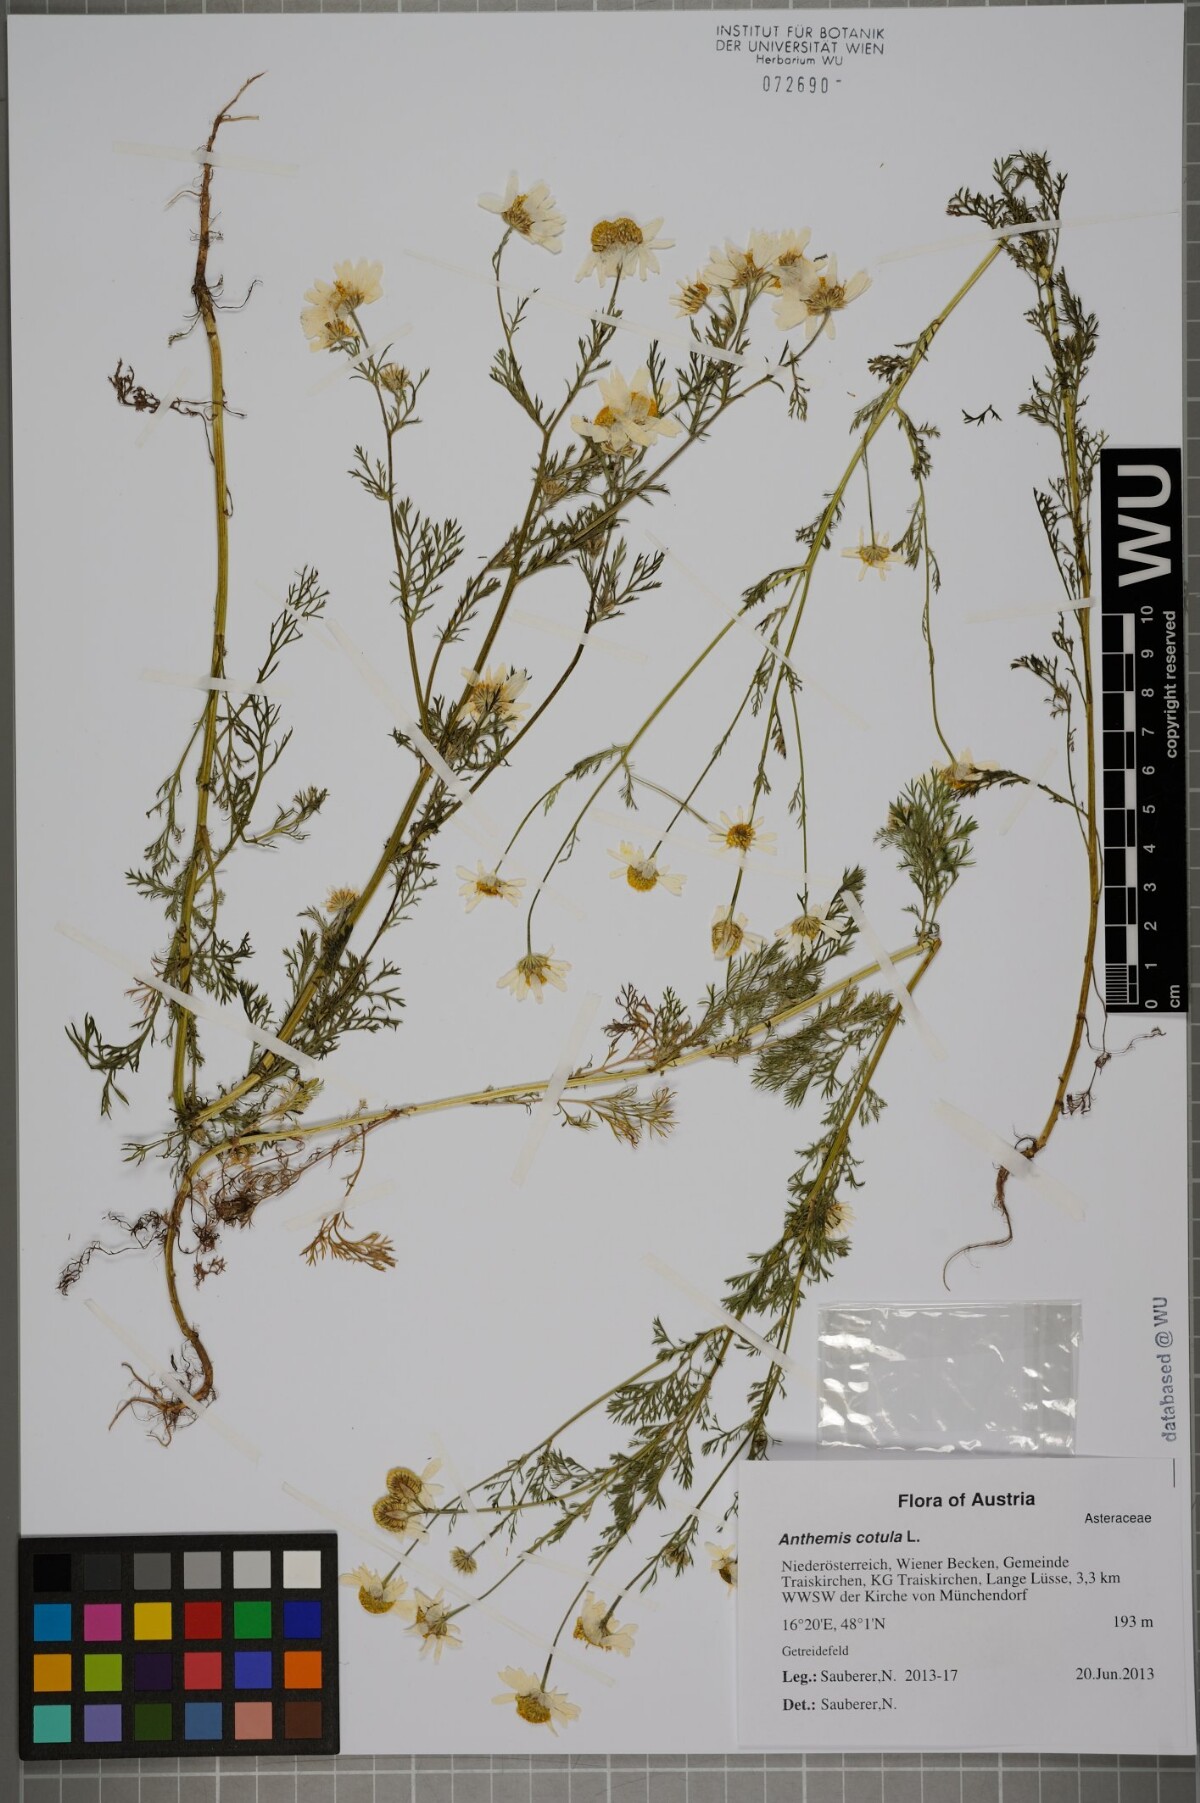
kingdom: Plantae
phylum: Tracheophyta
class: Magnoliopsida
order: Asterales
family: Asteraceae
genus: Anthemis
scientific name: Anthemis cotula
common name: Stinking chamomile
